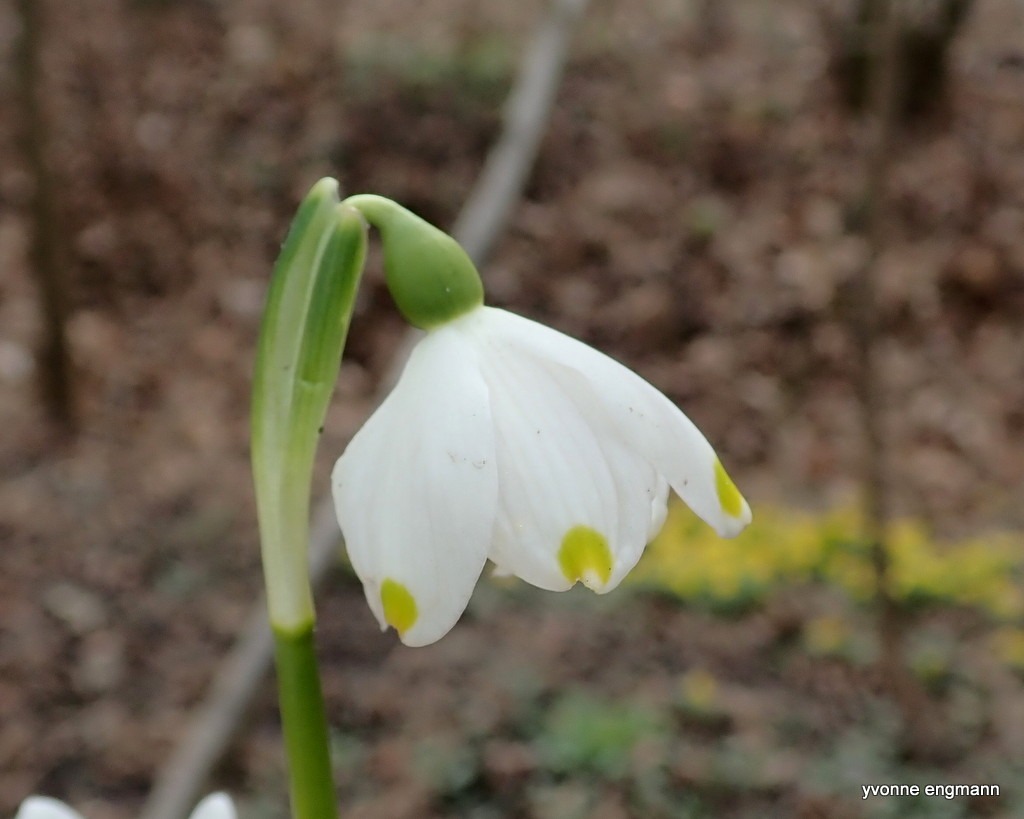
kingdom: Plantae
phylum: Tracheophyta
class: Liliopsida
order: Asparagales
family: Amaryllidaceae
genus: Leucojum
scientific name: Leucojum vernum
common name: Dorthealilje
